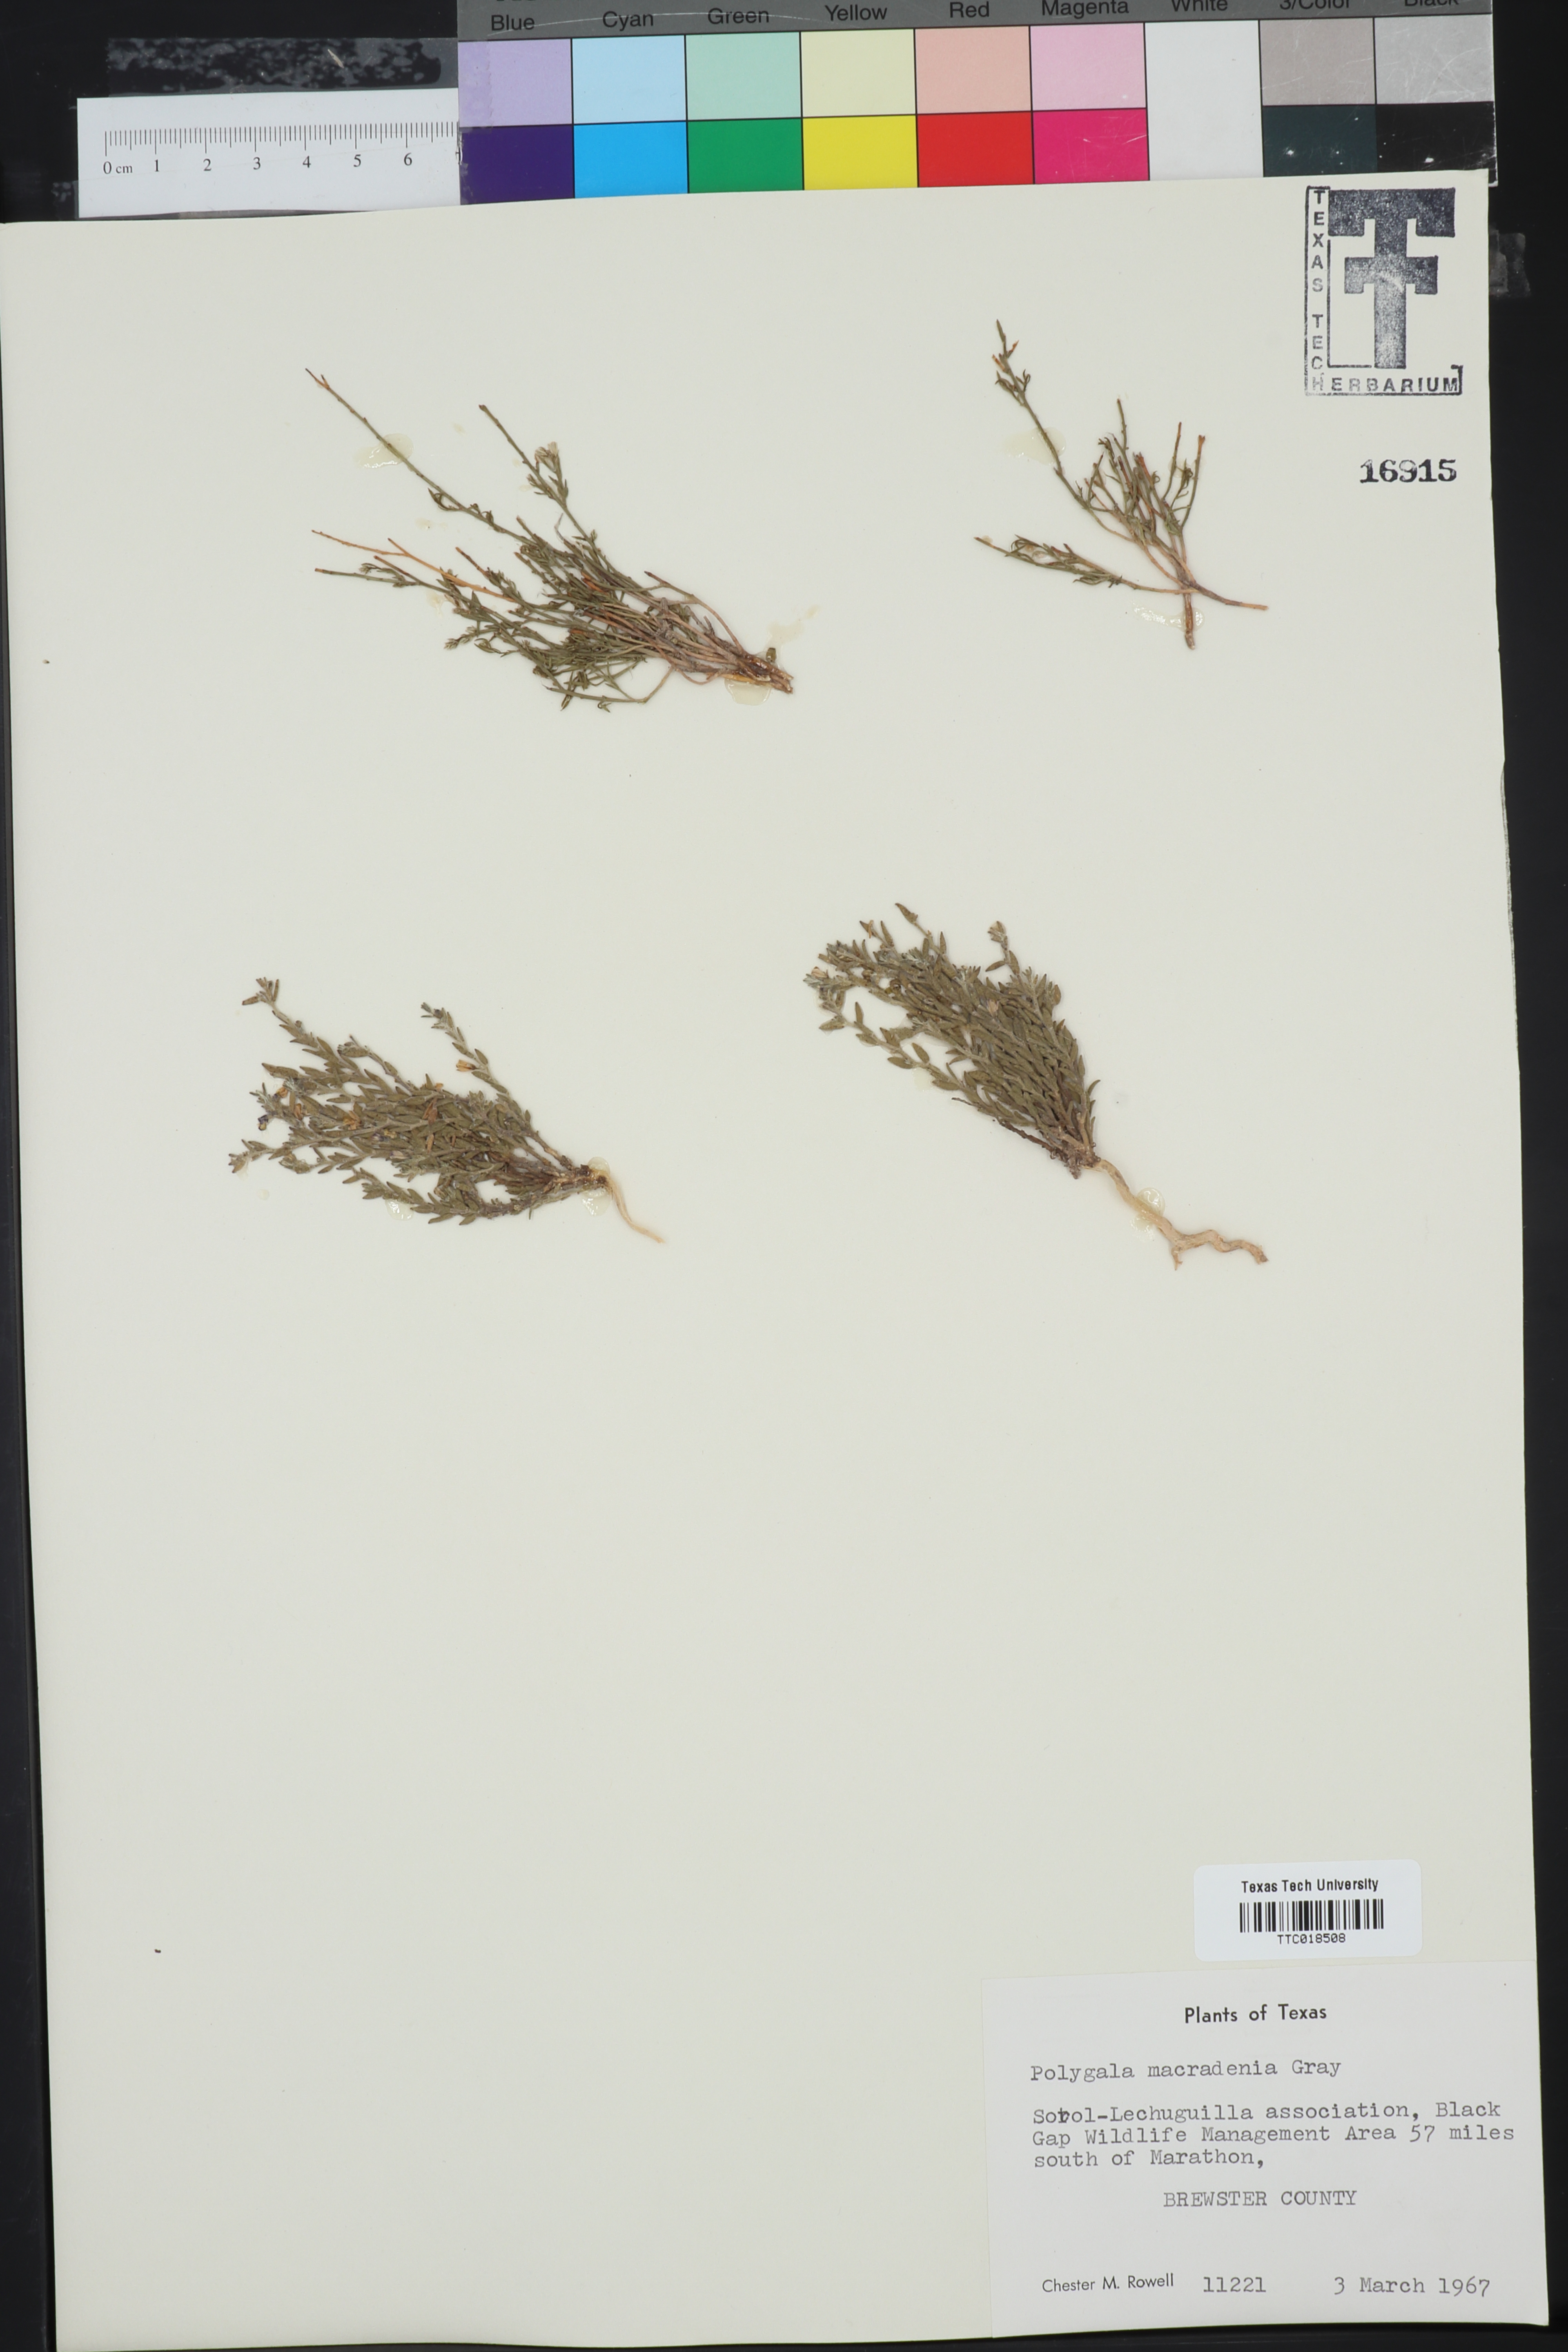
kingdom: Plantae
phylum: Tracheophyta
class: Magnoliopsida
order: Fabales
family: Polygalaceae
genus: Hebecarpa
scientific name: Hebecarpa macradenia
